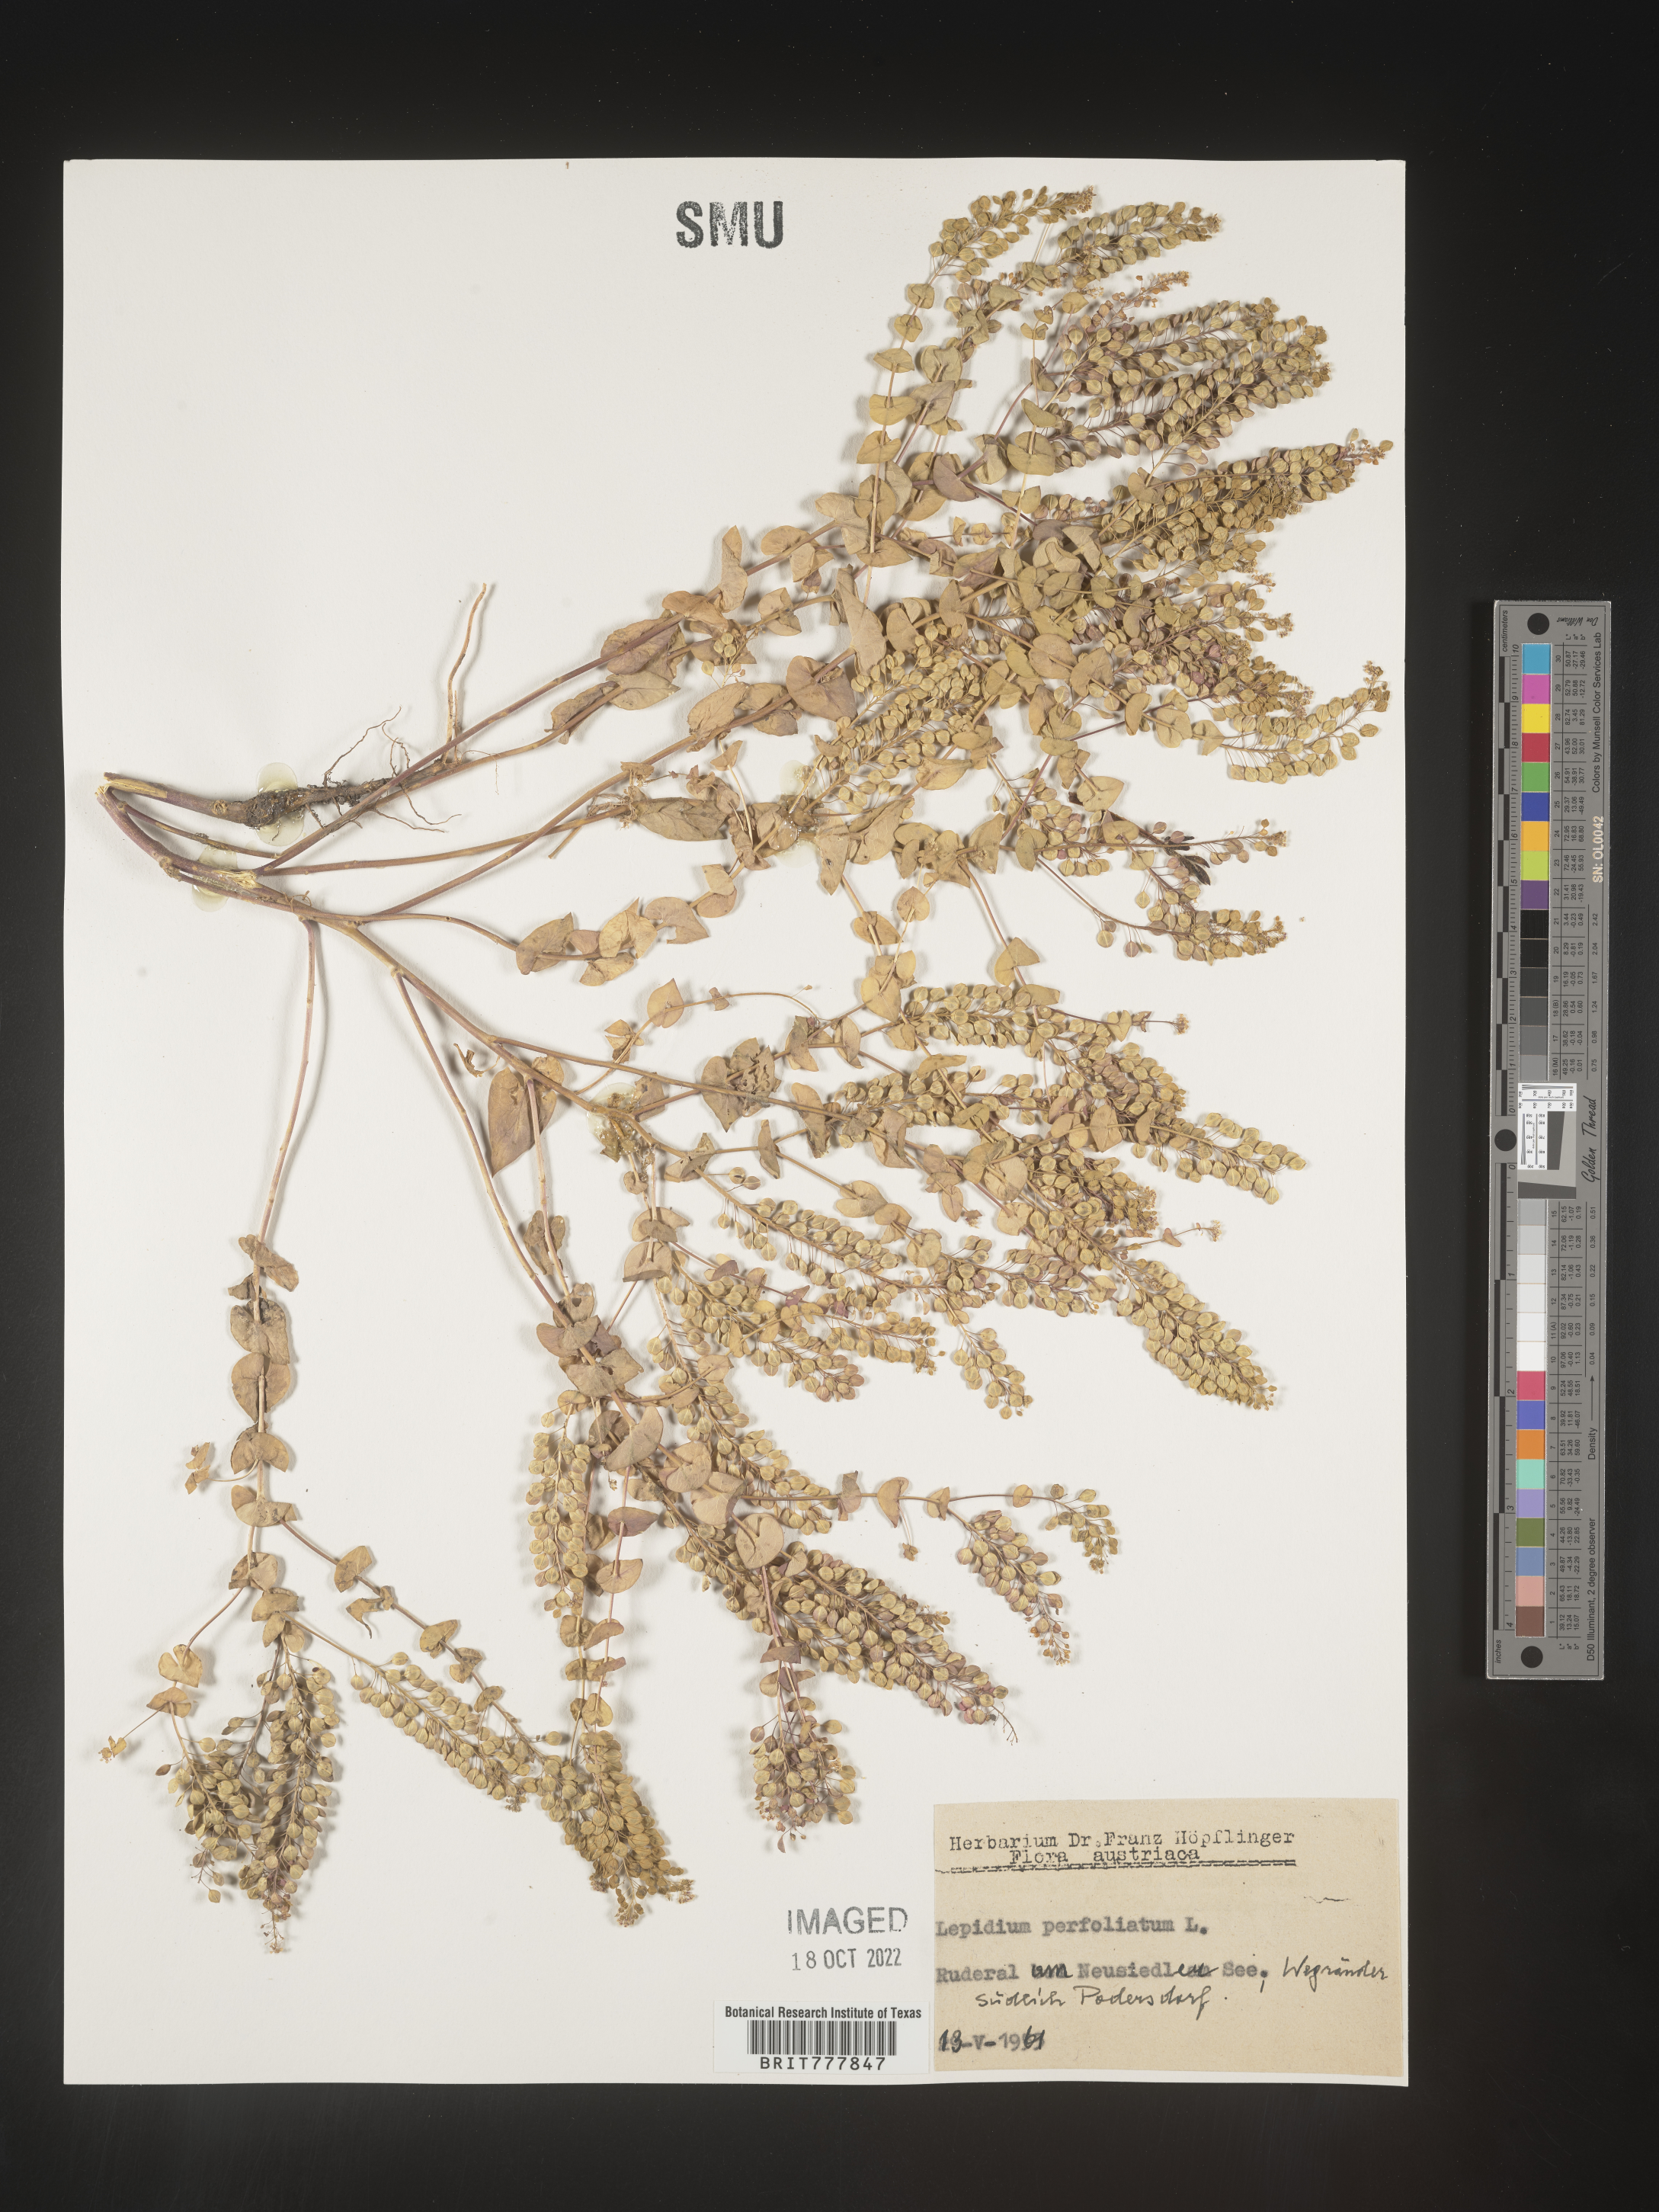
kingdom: Plantae
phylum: Tracheophyta
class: Magnoliopsida
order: Brassicales
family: Brassicaceae
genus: Lepidium
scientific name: Lepidium
